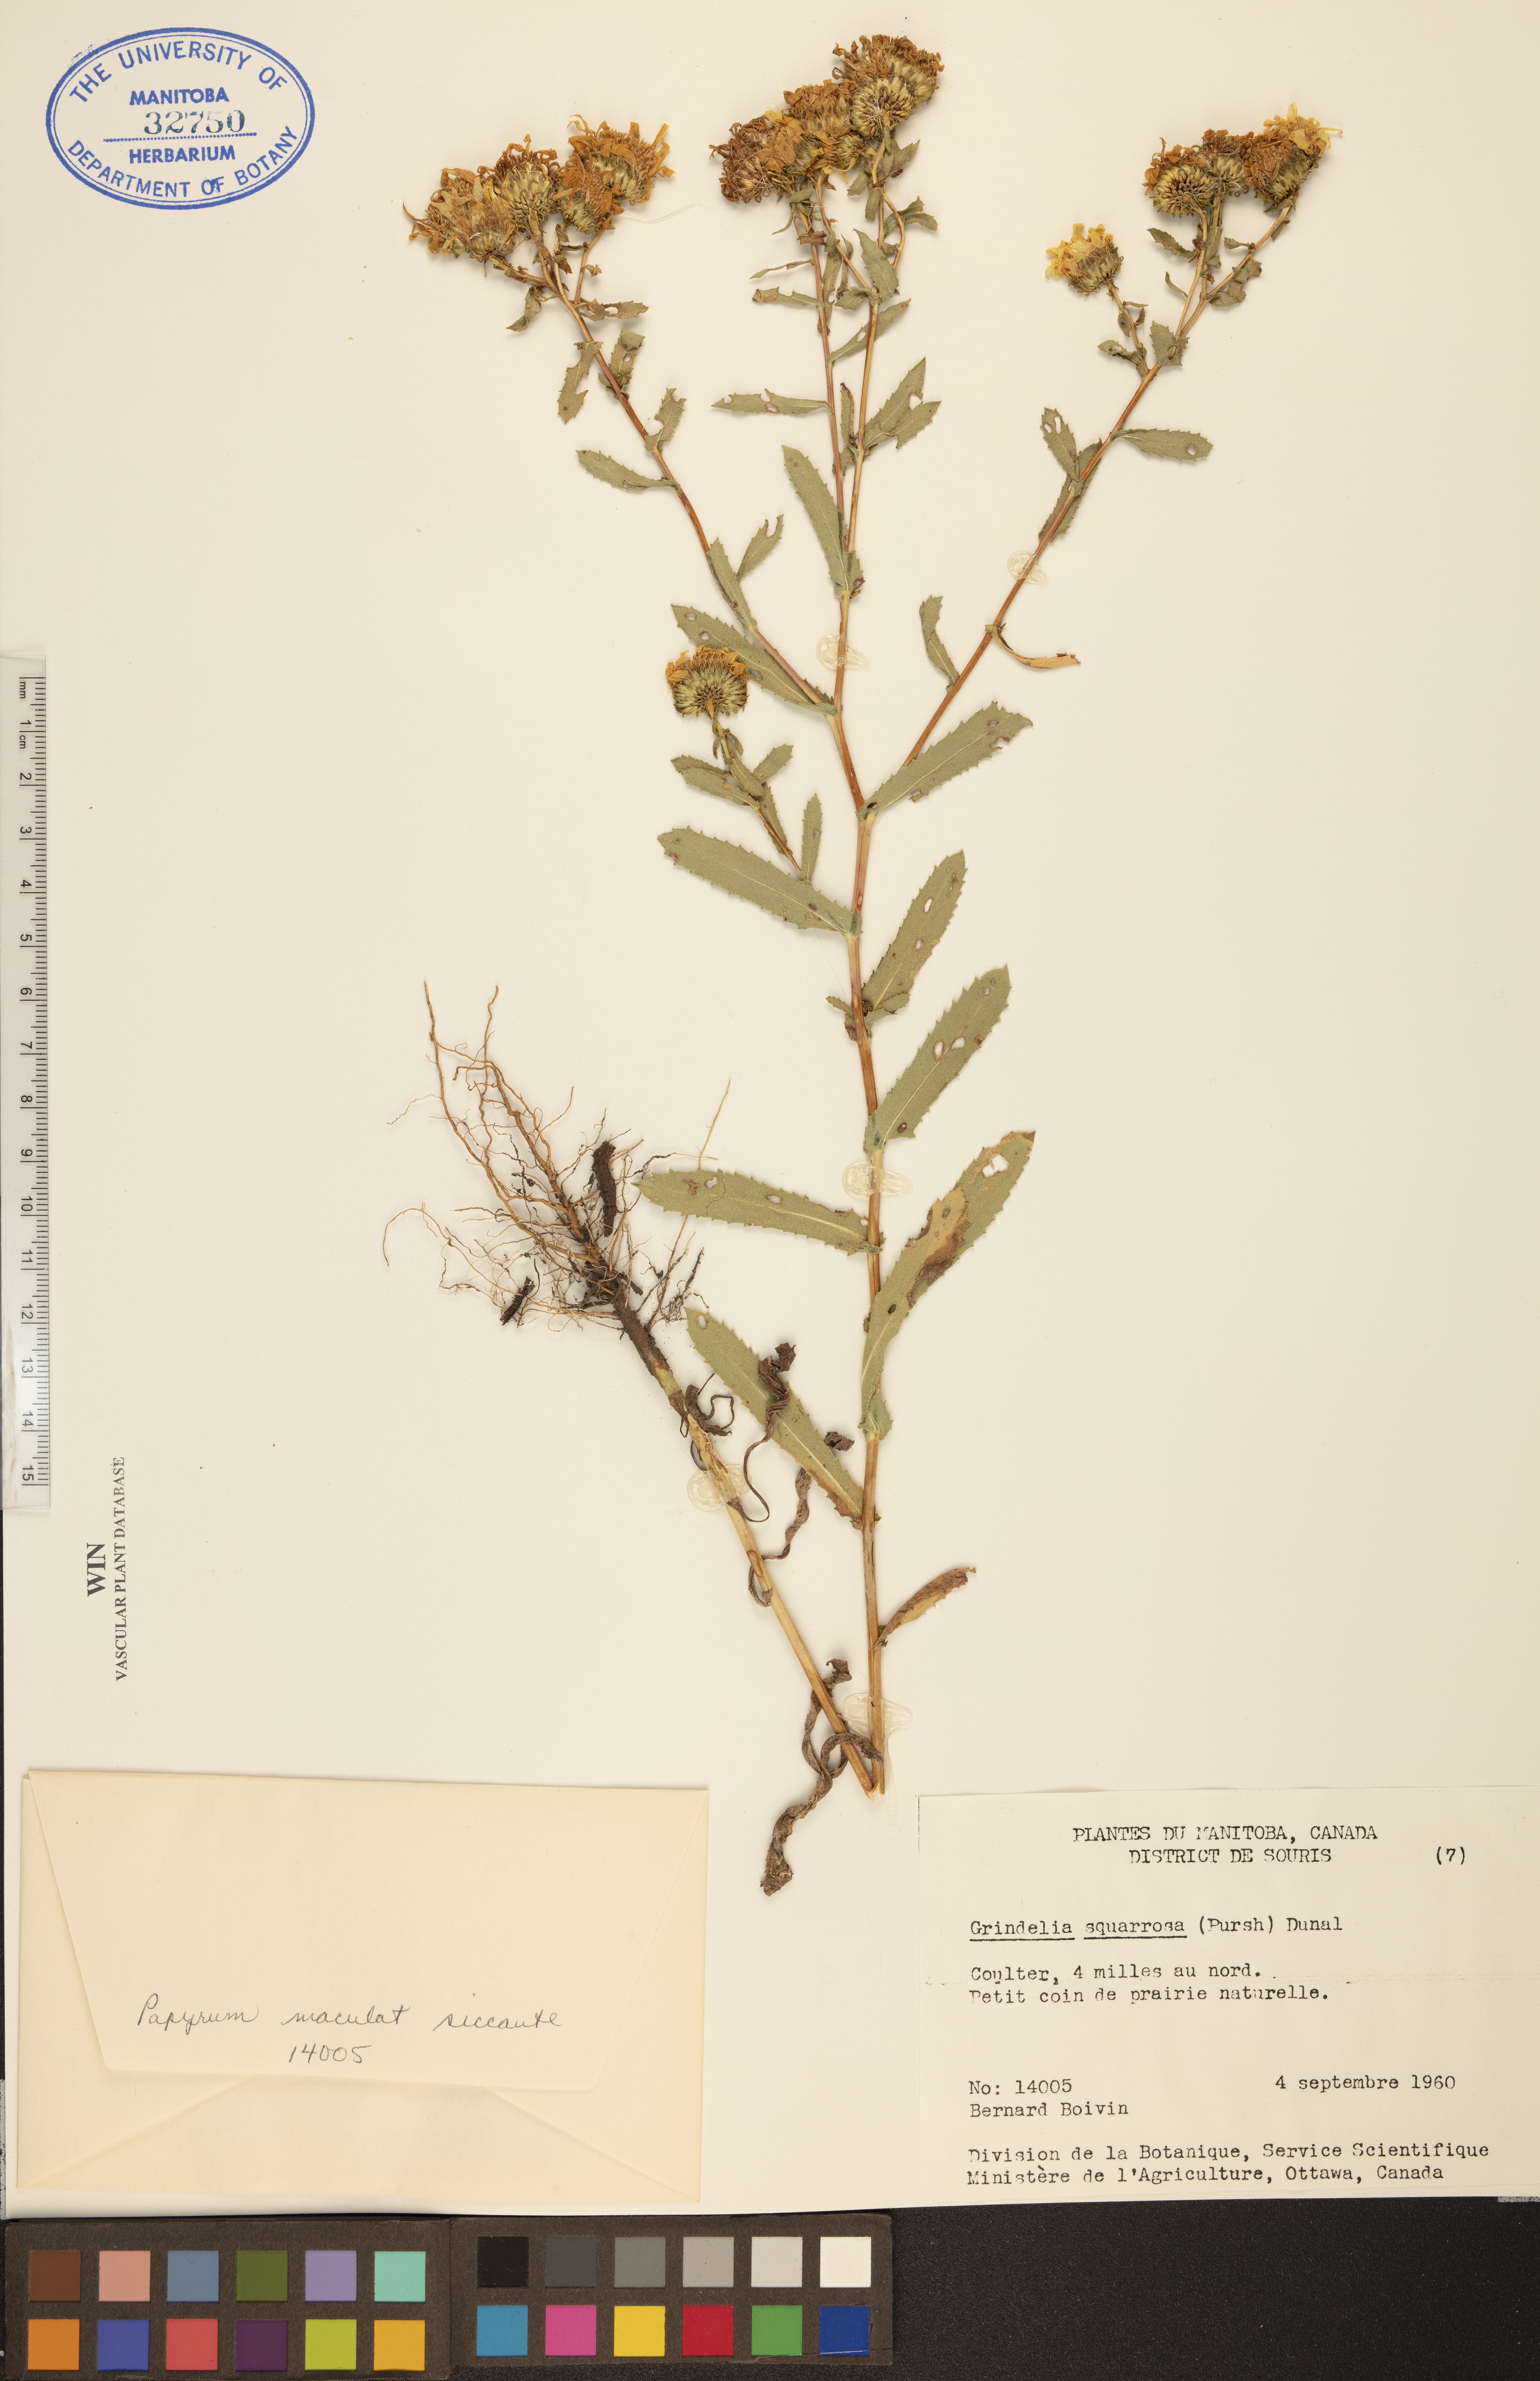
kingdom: Plantae
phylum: Tracheophyta
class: Magnoliopsida
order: Asterales
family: Asteraceae
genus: Grindelia
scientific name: Grindelia squarrosa
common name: Curly-cup gumweed
